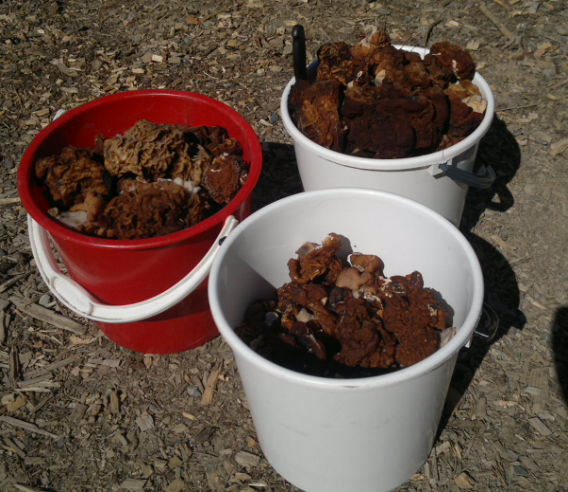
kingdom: Fungi
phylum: Ascomycota
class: Pezizomycetes
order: Pezizales
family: Discinaceae
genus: Gyromitra
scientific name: Gyromitra esculenta
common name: False morel
